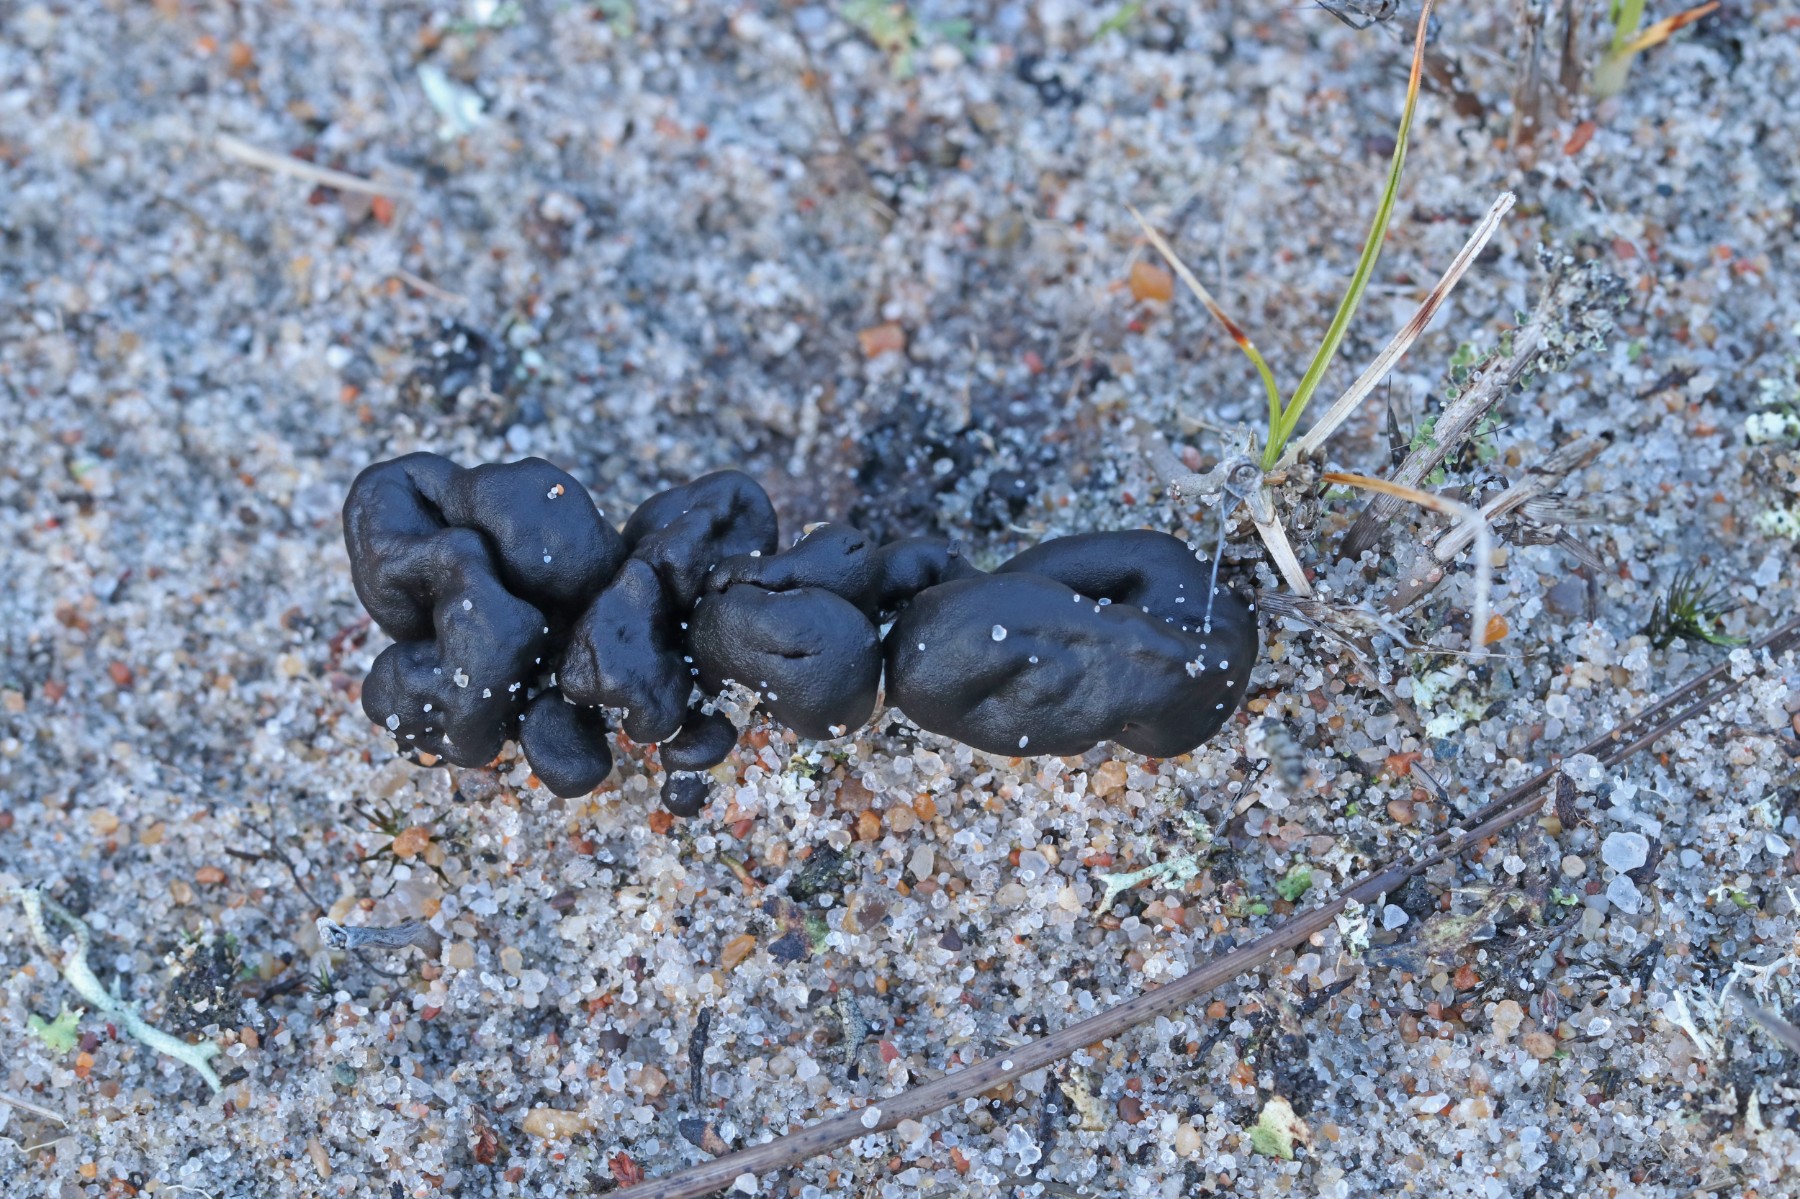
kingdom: Fungi
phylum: Ascomycota
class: Geoglossomycetes
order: Geoglossales
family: Geoglossaceae
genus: Sabuloglossum
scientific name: Sabuloglossum arenarium
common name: klit-jordtunge
